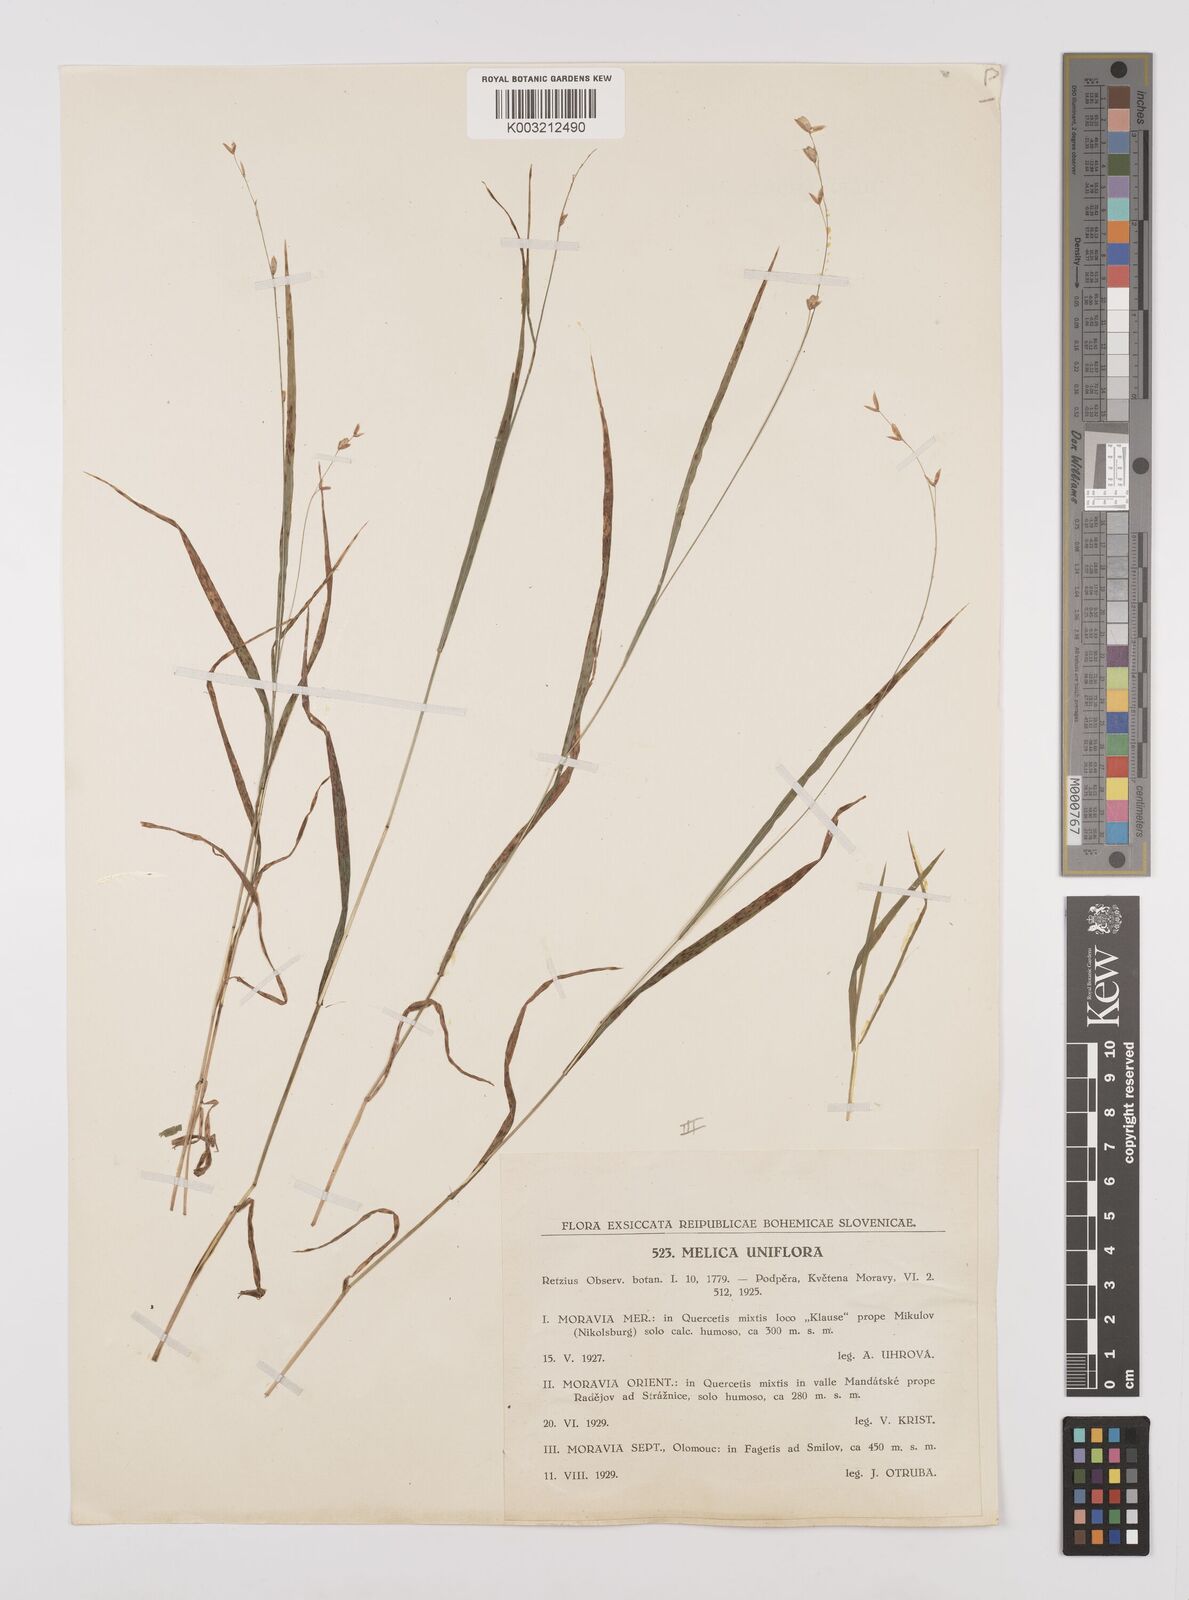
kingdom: Plantae
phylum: Tracheophyta
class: Liliopsida
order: Poales
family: Poaceae
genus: Melica
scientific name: Melica uniflora
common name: Wood melick
